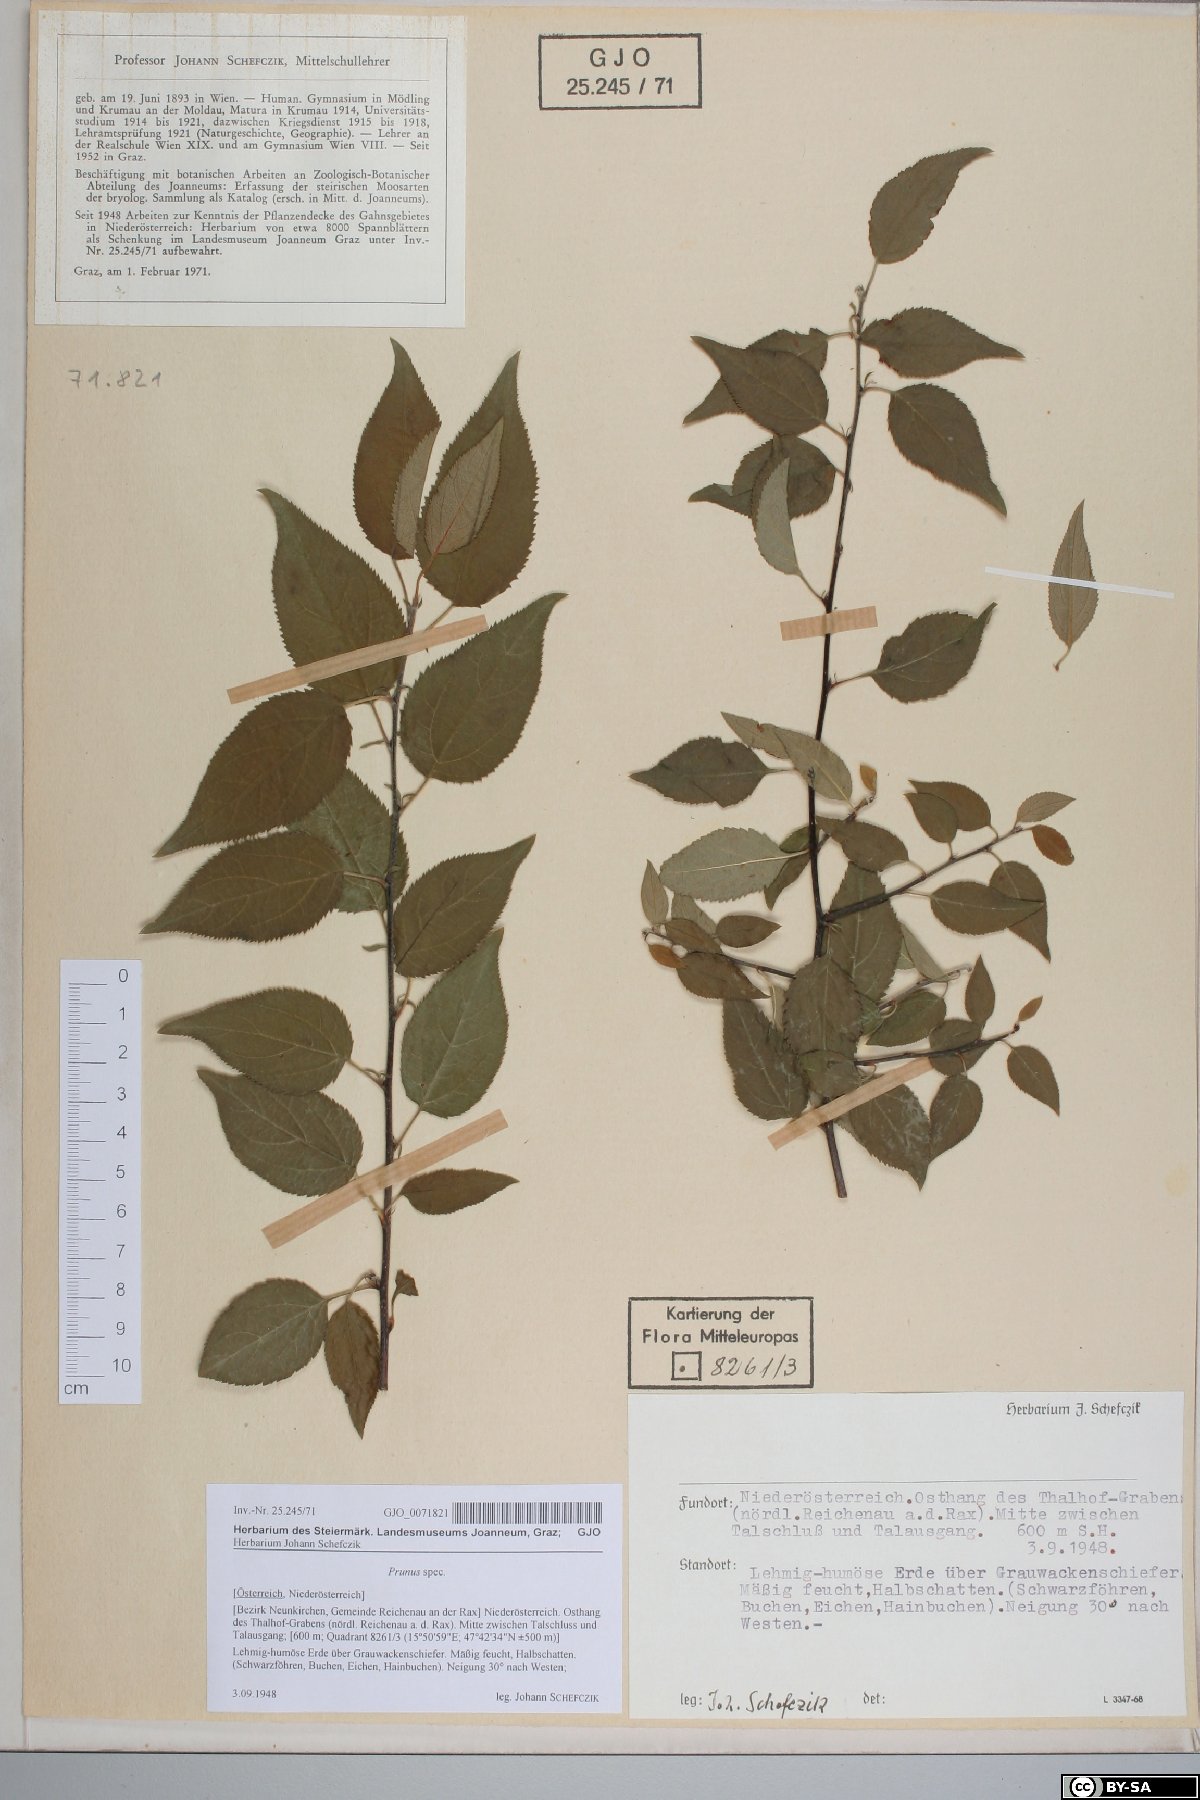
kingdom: Plantae
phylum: Tracheophyta
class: Magnoliopsida
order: Rosales
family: Rosaceae
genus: Prunus
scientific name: Prunus
